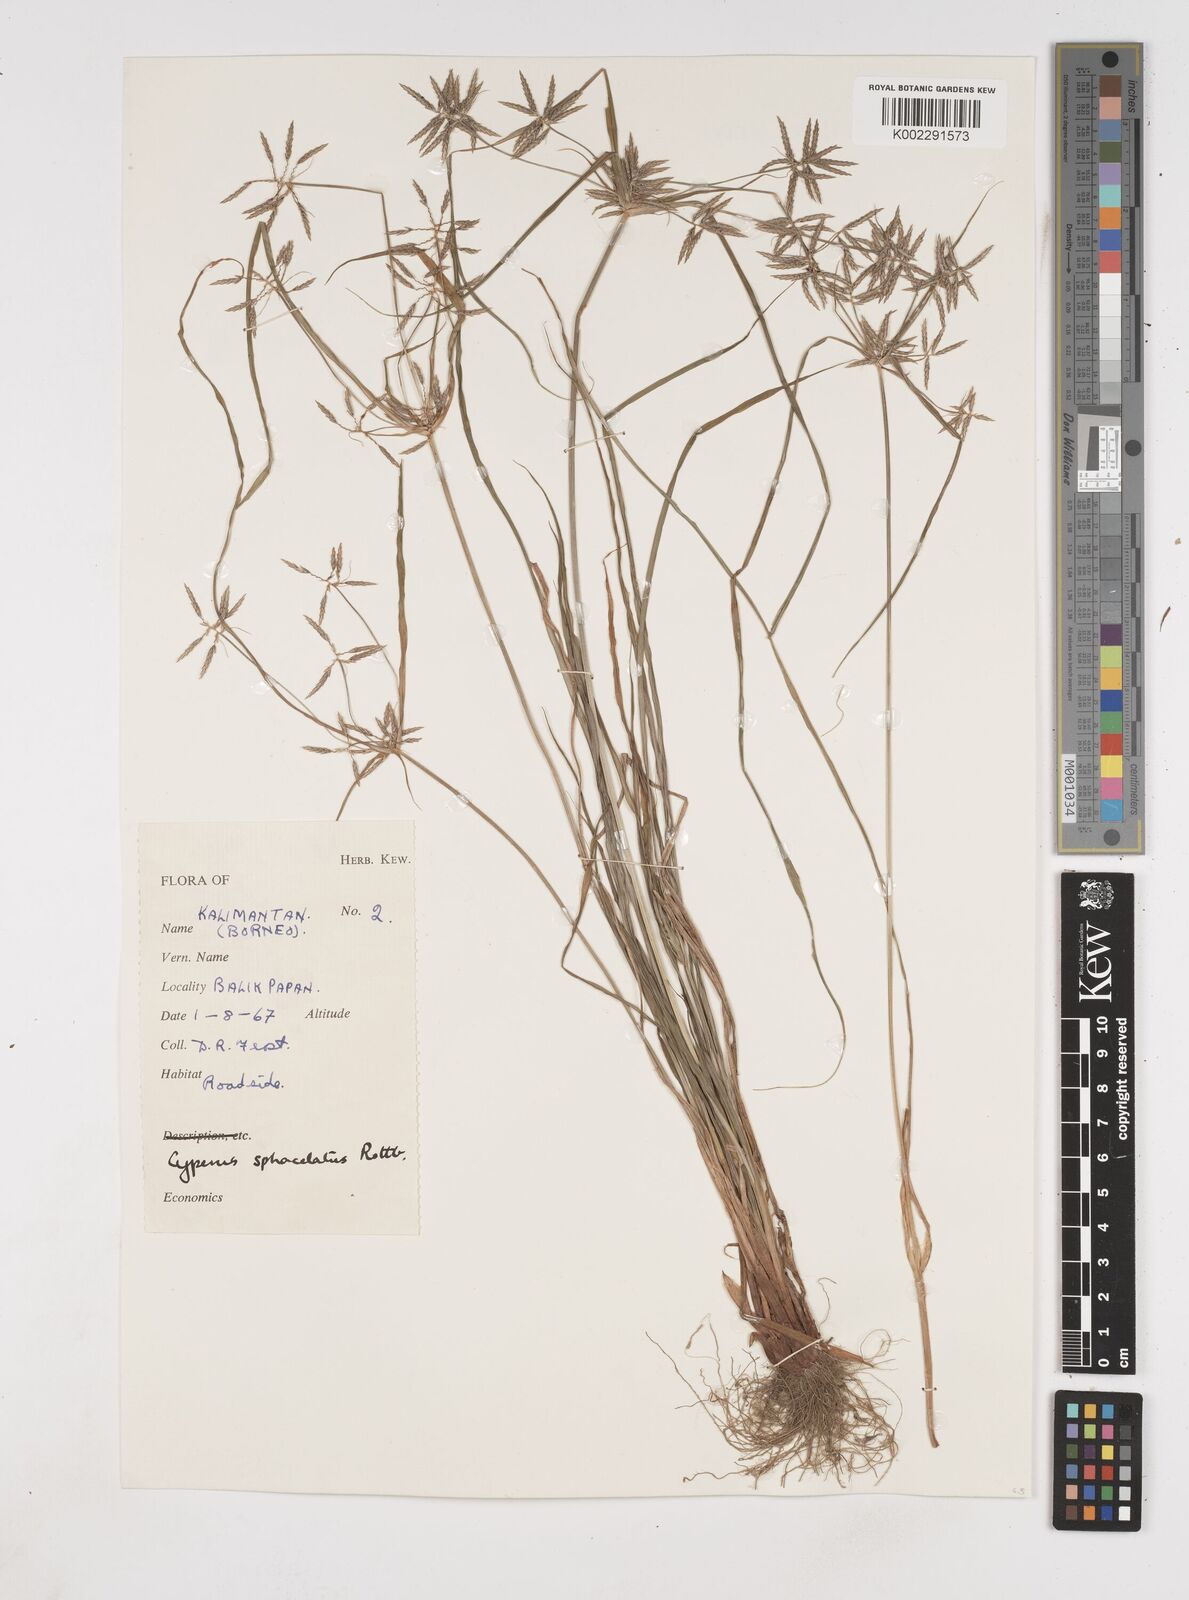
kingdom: Plantae
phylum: Tracheophyta
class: Liliopsida
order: Poales
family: Cyperaceae
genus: Cyperus
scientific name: Cyperus sphacelatus
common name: Roadside flatsedge
